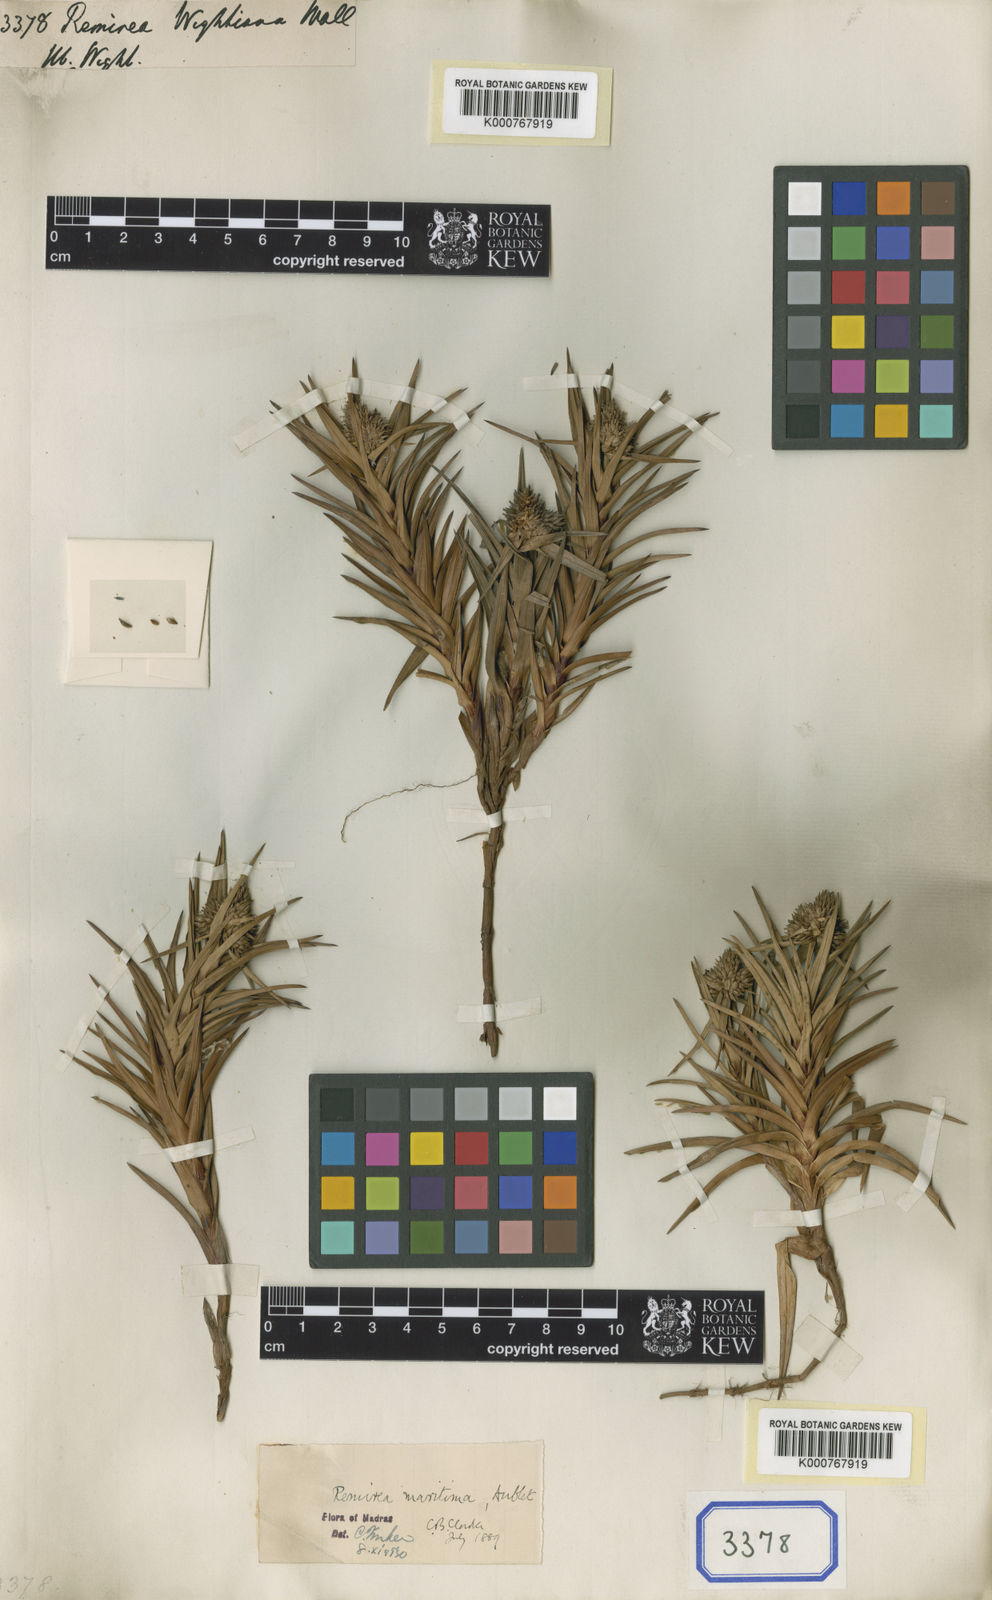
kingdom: Plantae
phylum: Tracheophyta
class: Liliopsida
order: Poales
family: Cyperaceae
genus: Cyperus
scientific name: Cyperus
